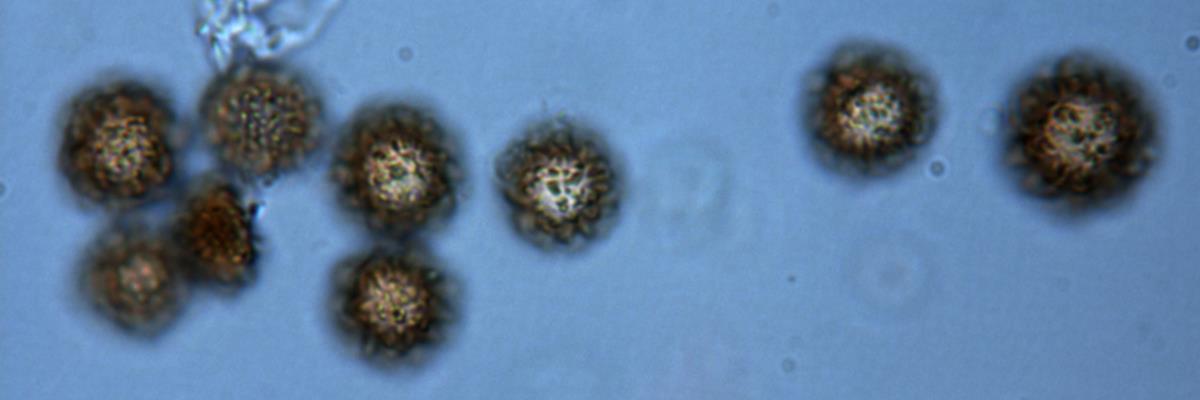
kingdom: Fungi
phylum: Basidiomycota
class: Agaricomycetes
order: Boletales
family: Sclerodermataceae
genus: Pisolithus
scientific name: Pisolithus marmoratus
